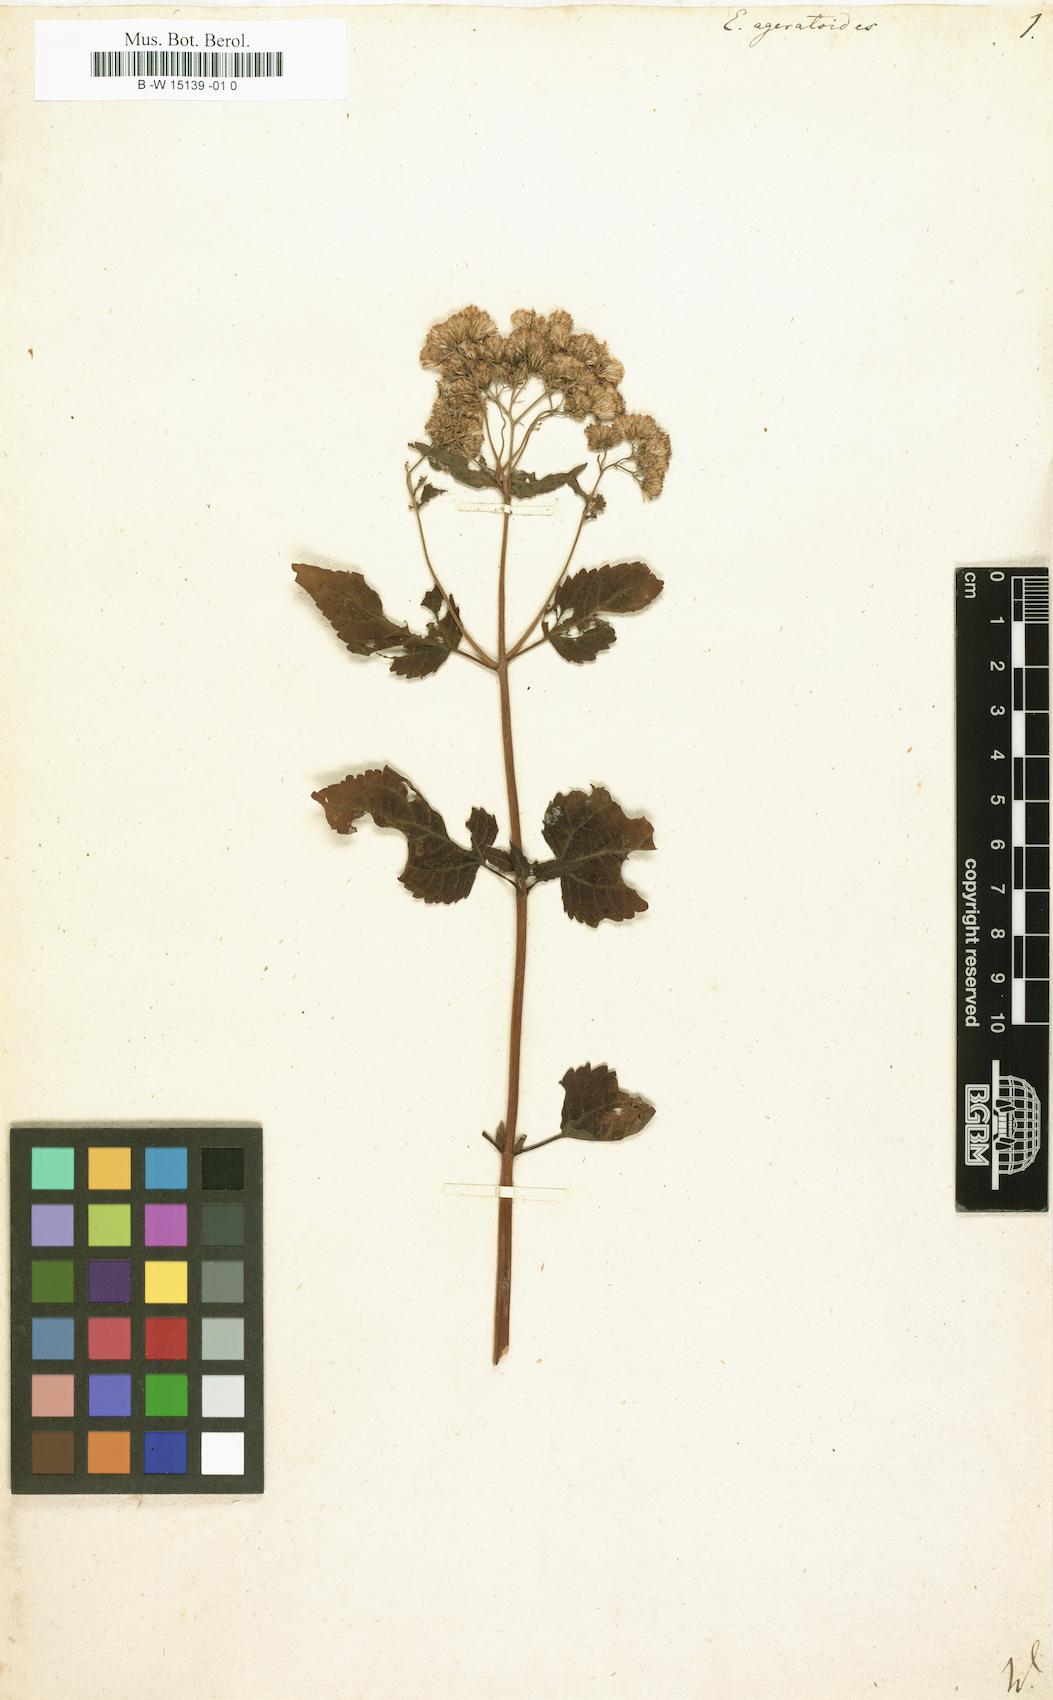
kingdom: Plantae
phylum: Tracheophyta
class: Magnoliopsida
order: Asterales
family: Asteraceae
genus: Ageratina
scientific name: Ageratina
